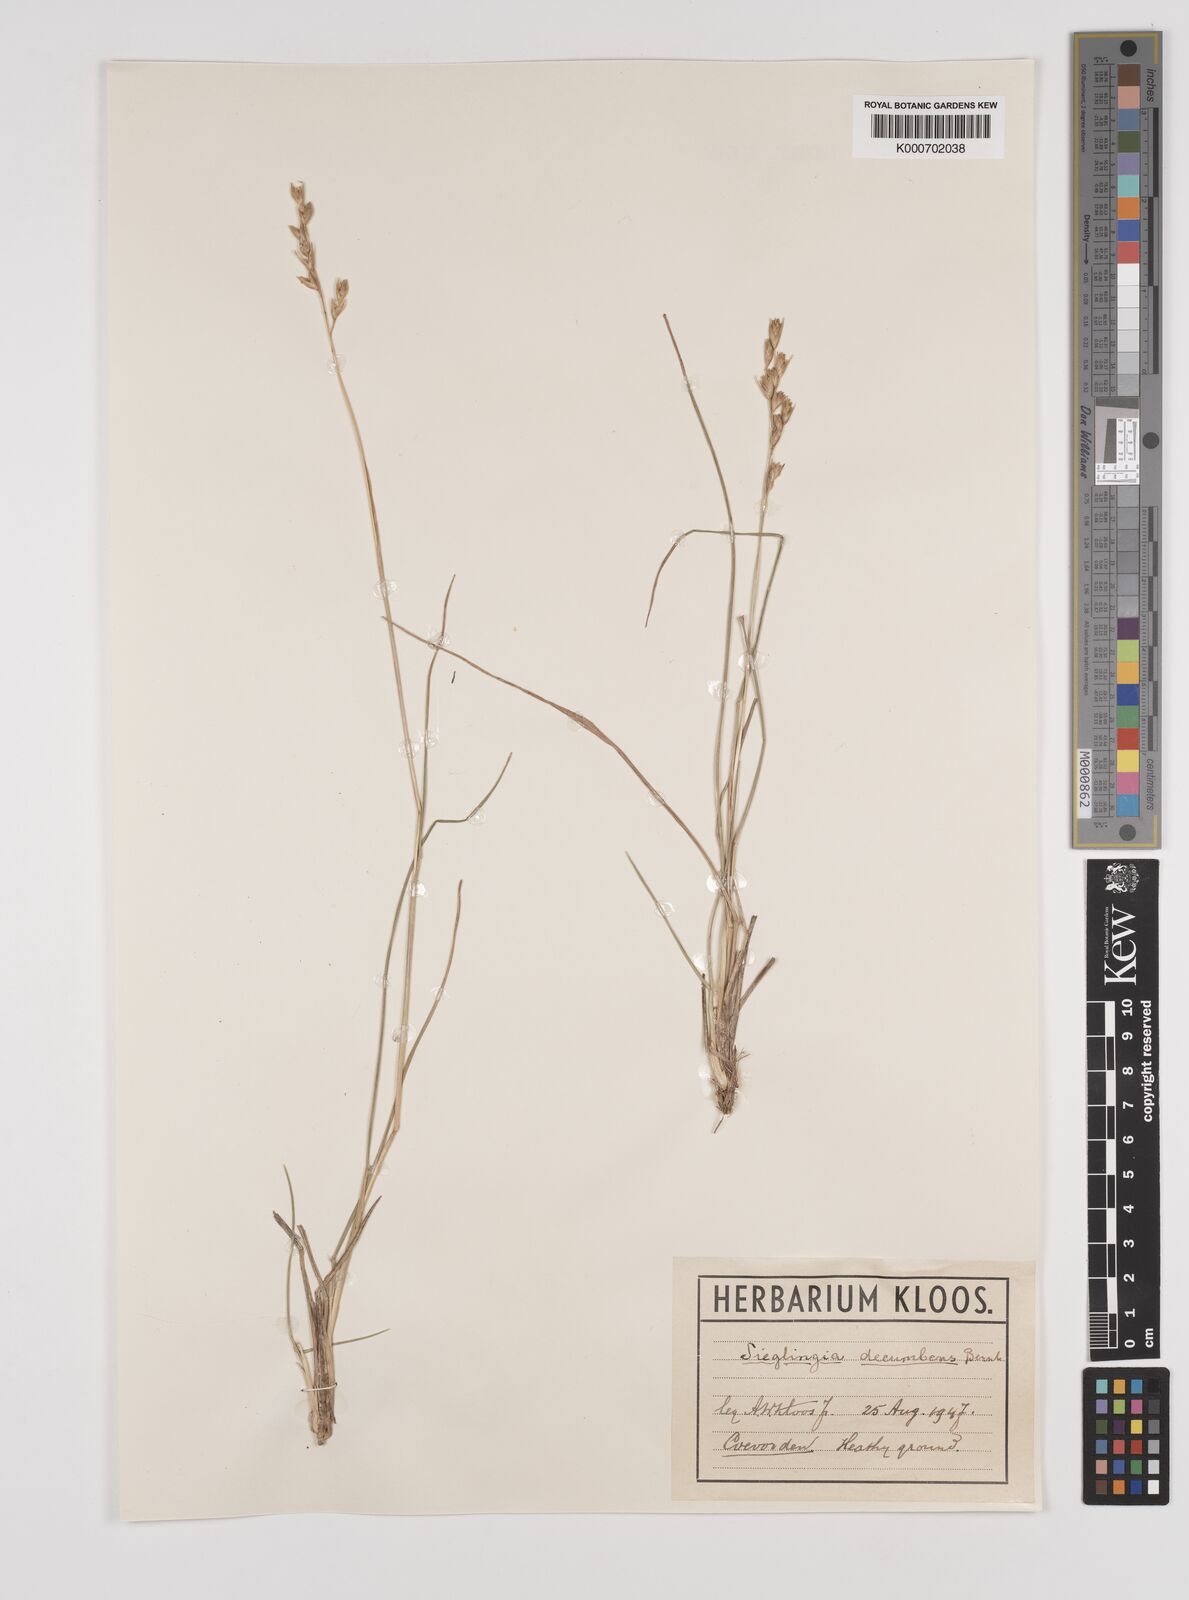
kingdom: Plantae
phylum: Tracheophyta
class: Liliopsida
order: Poales
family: Poaceae
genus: Danthonia
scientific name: Danthonia decumbens
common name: Common heathgrass
